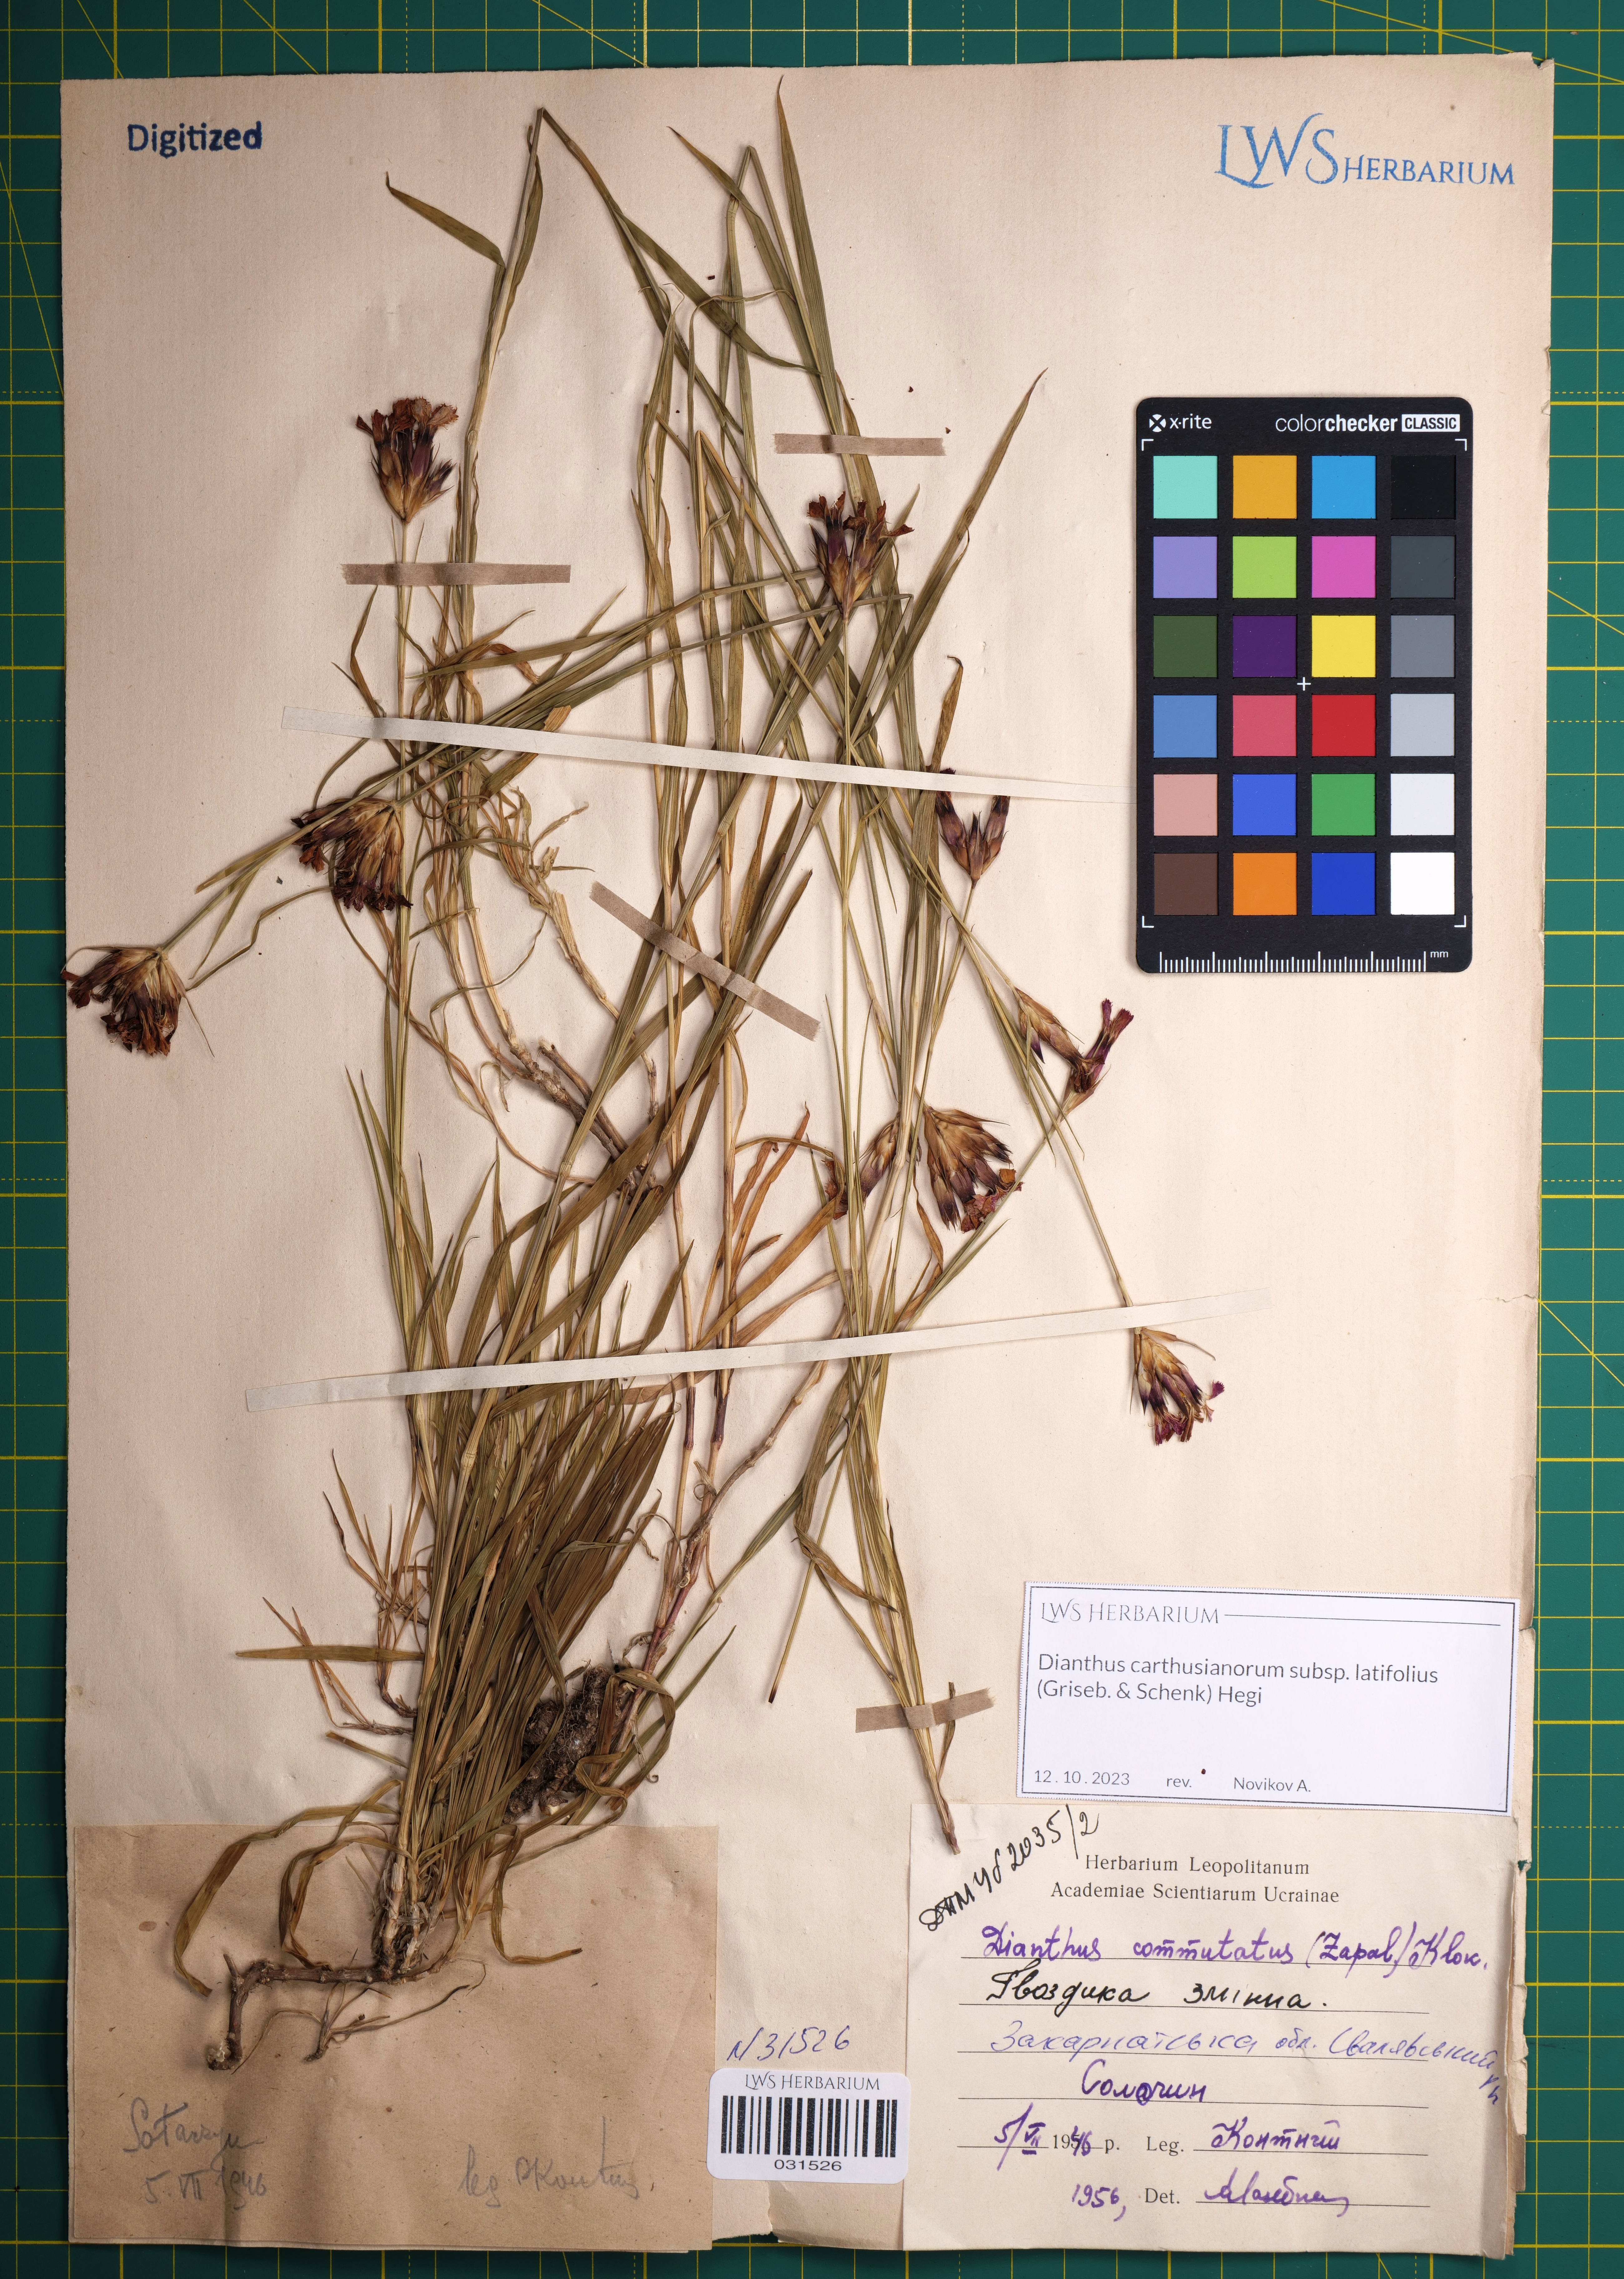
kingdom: Plantae
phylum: Tracheophyta
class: Magnoliopsida
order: Caryophyllales
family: Caryophyllaceae
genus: Dianthus
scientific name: Dianthus carthusianorum
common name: Carthusian pink
